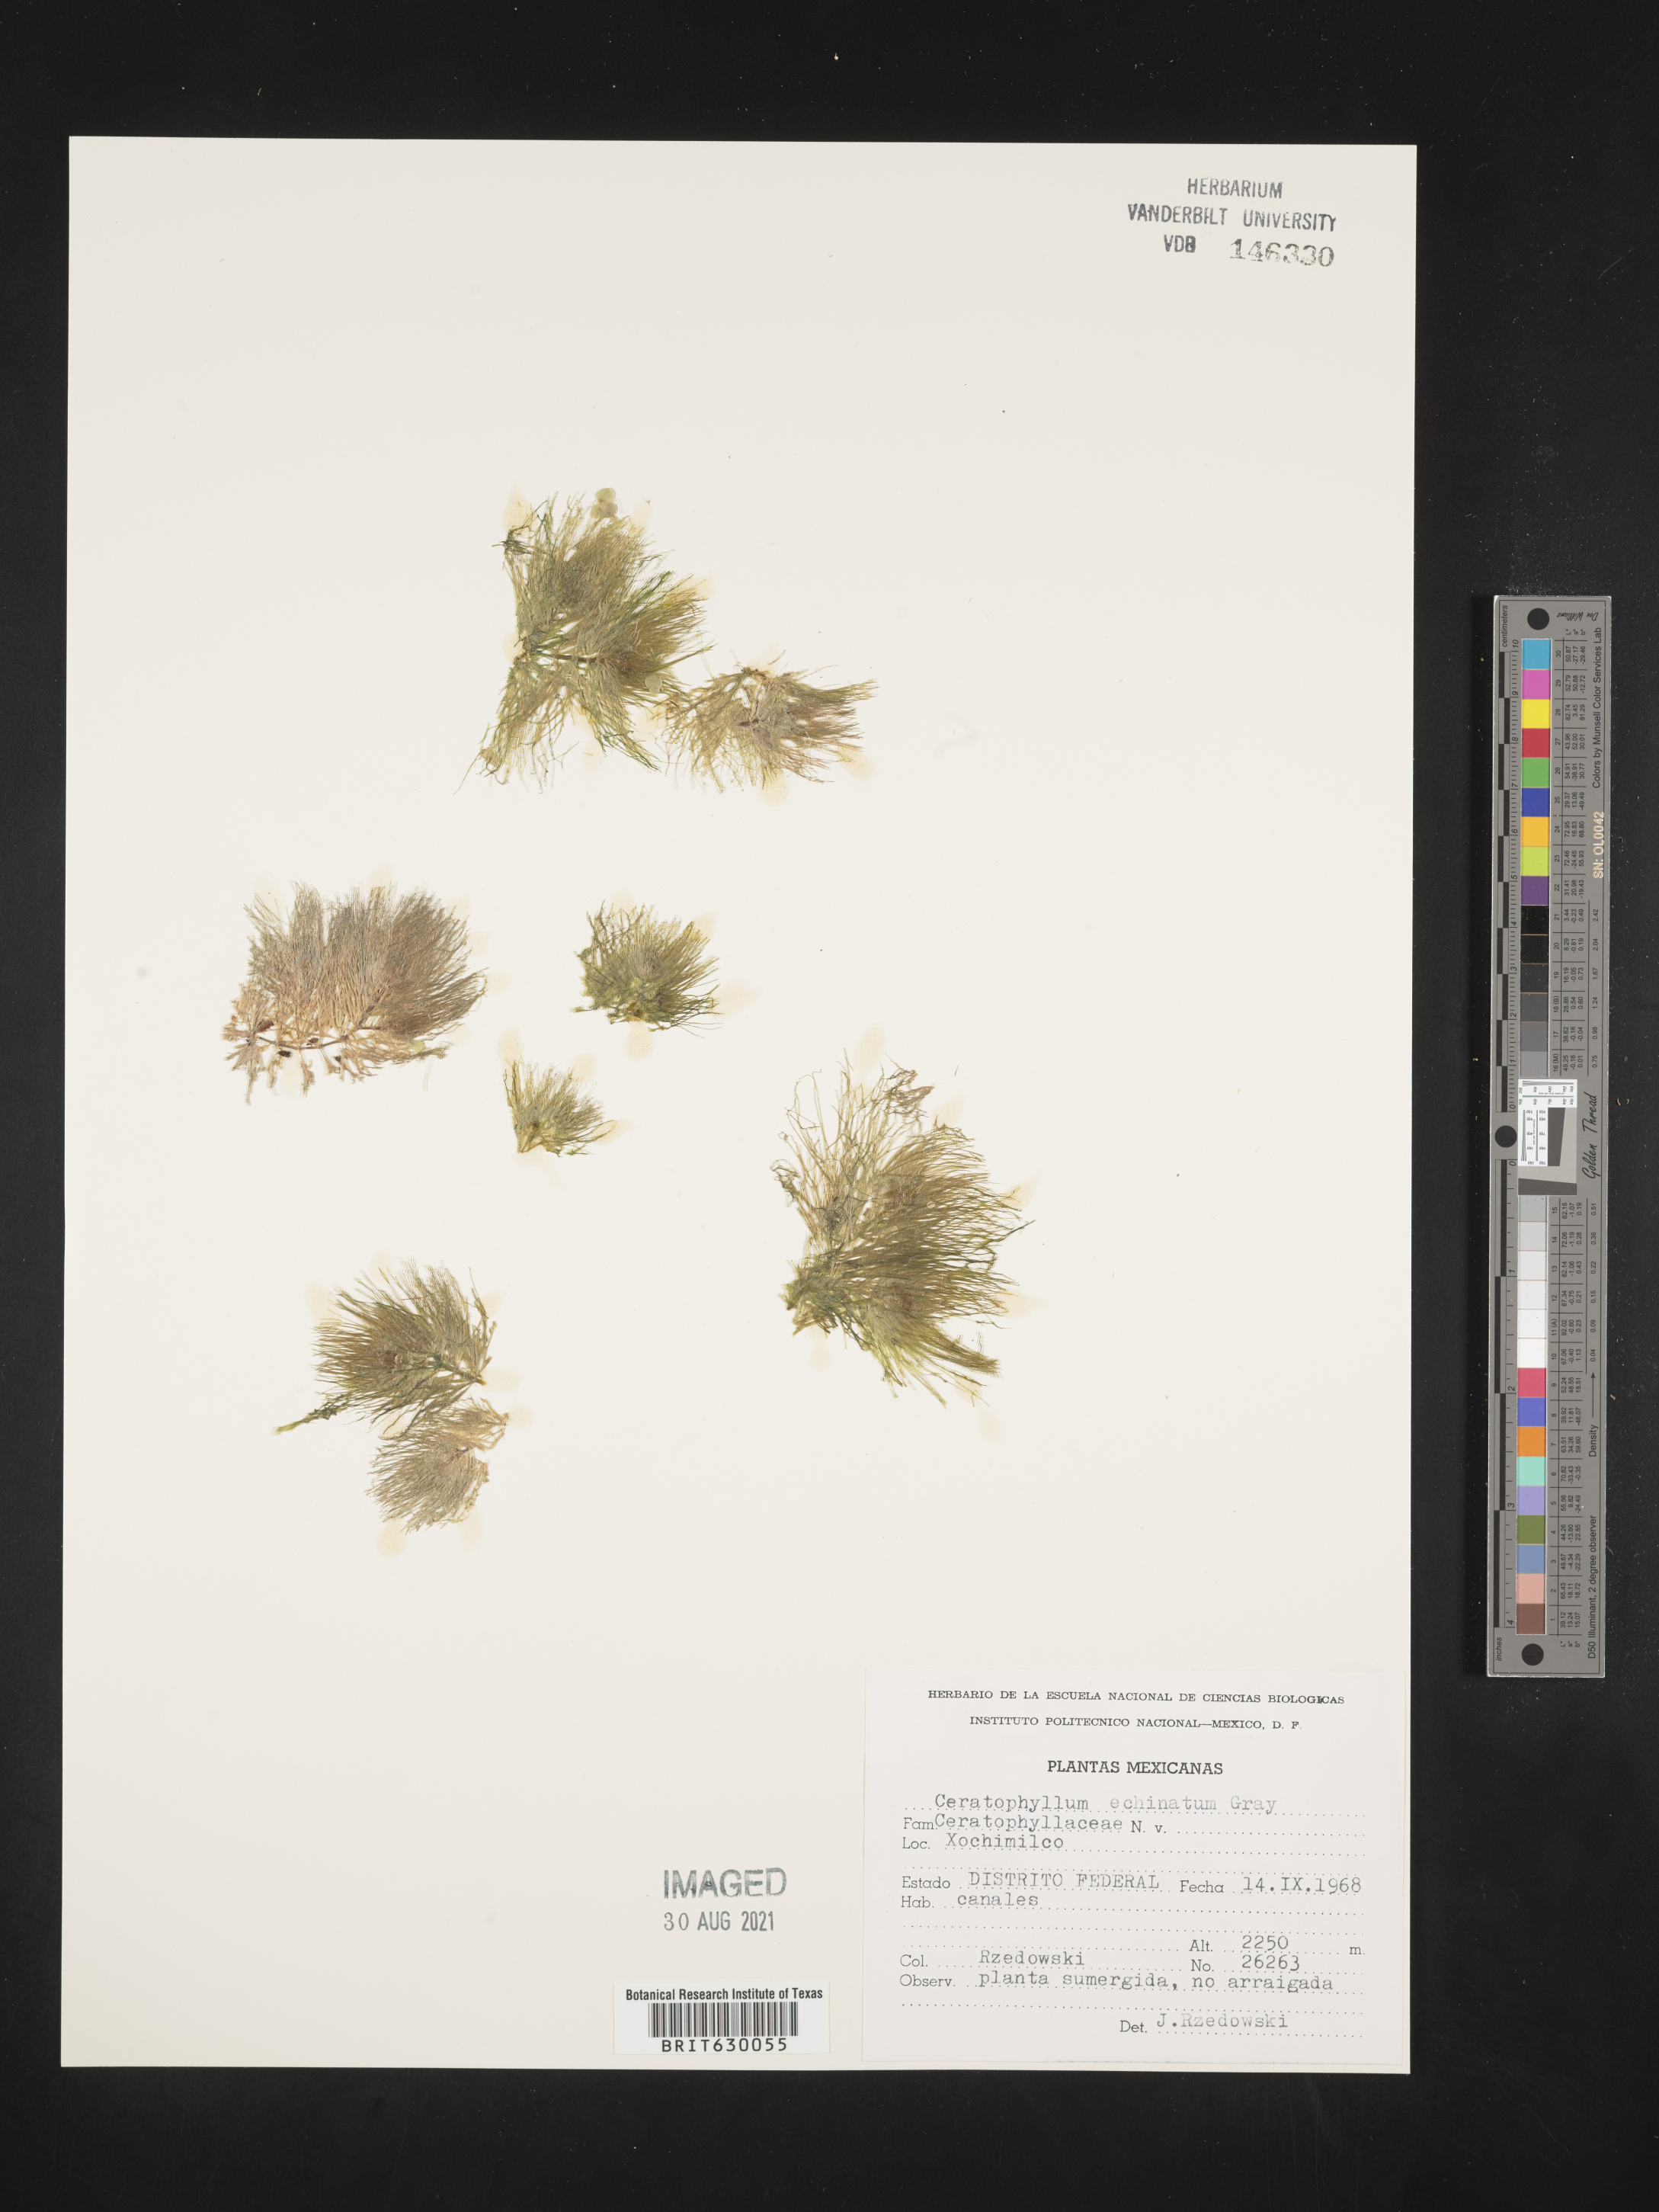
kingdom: Plantae
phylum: Tracheophyta
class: Magnoliopsida
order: Ceratophyllales
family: Ceratophyllaceae
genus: Ceratophyllum
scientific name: Ceratophyllum echinatum
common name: Prickly coontail
